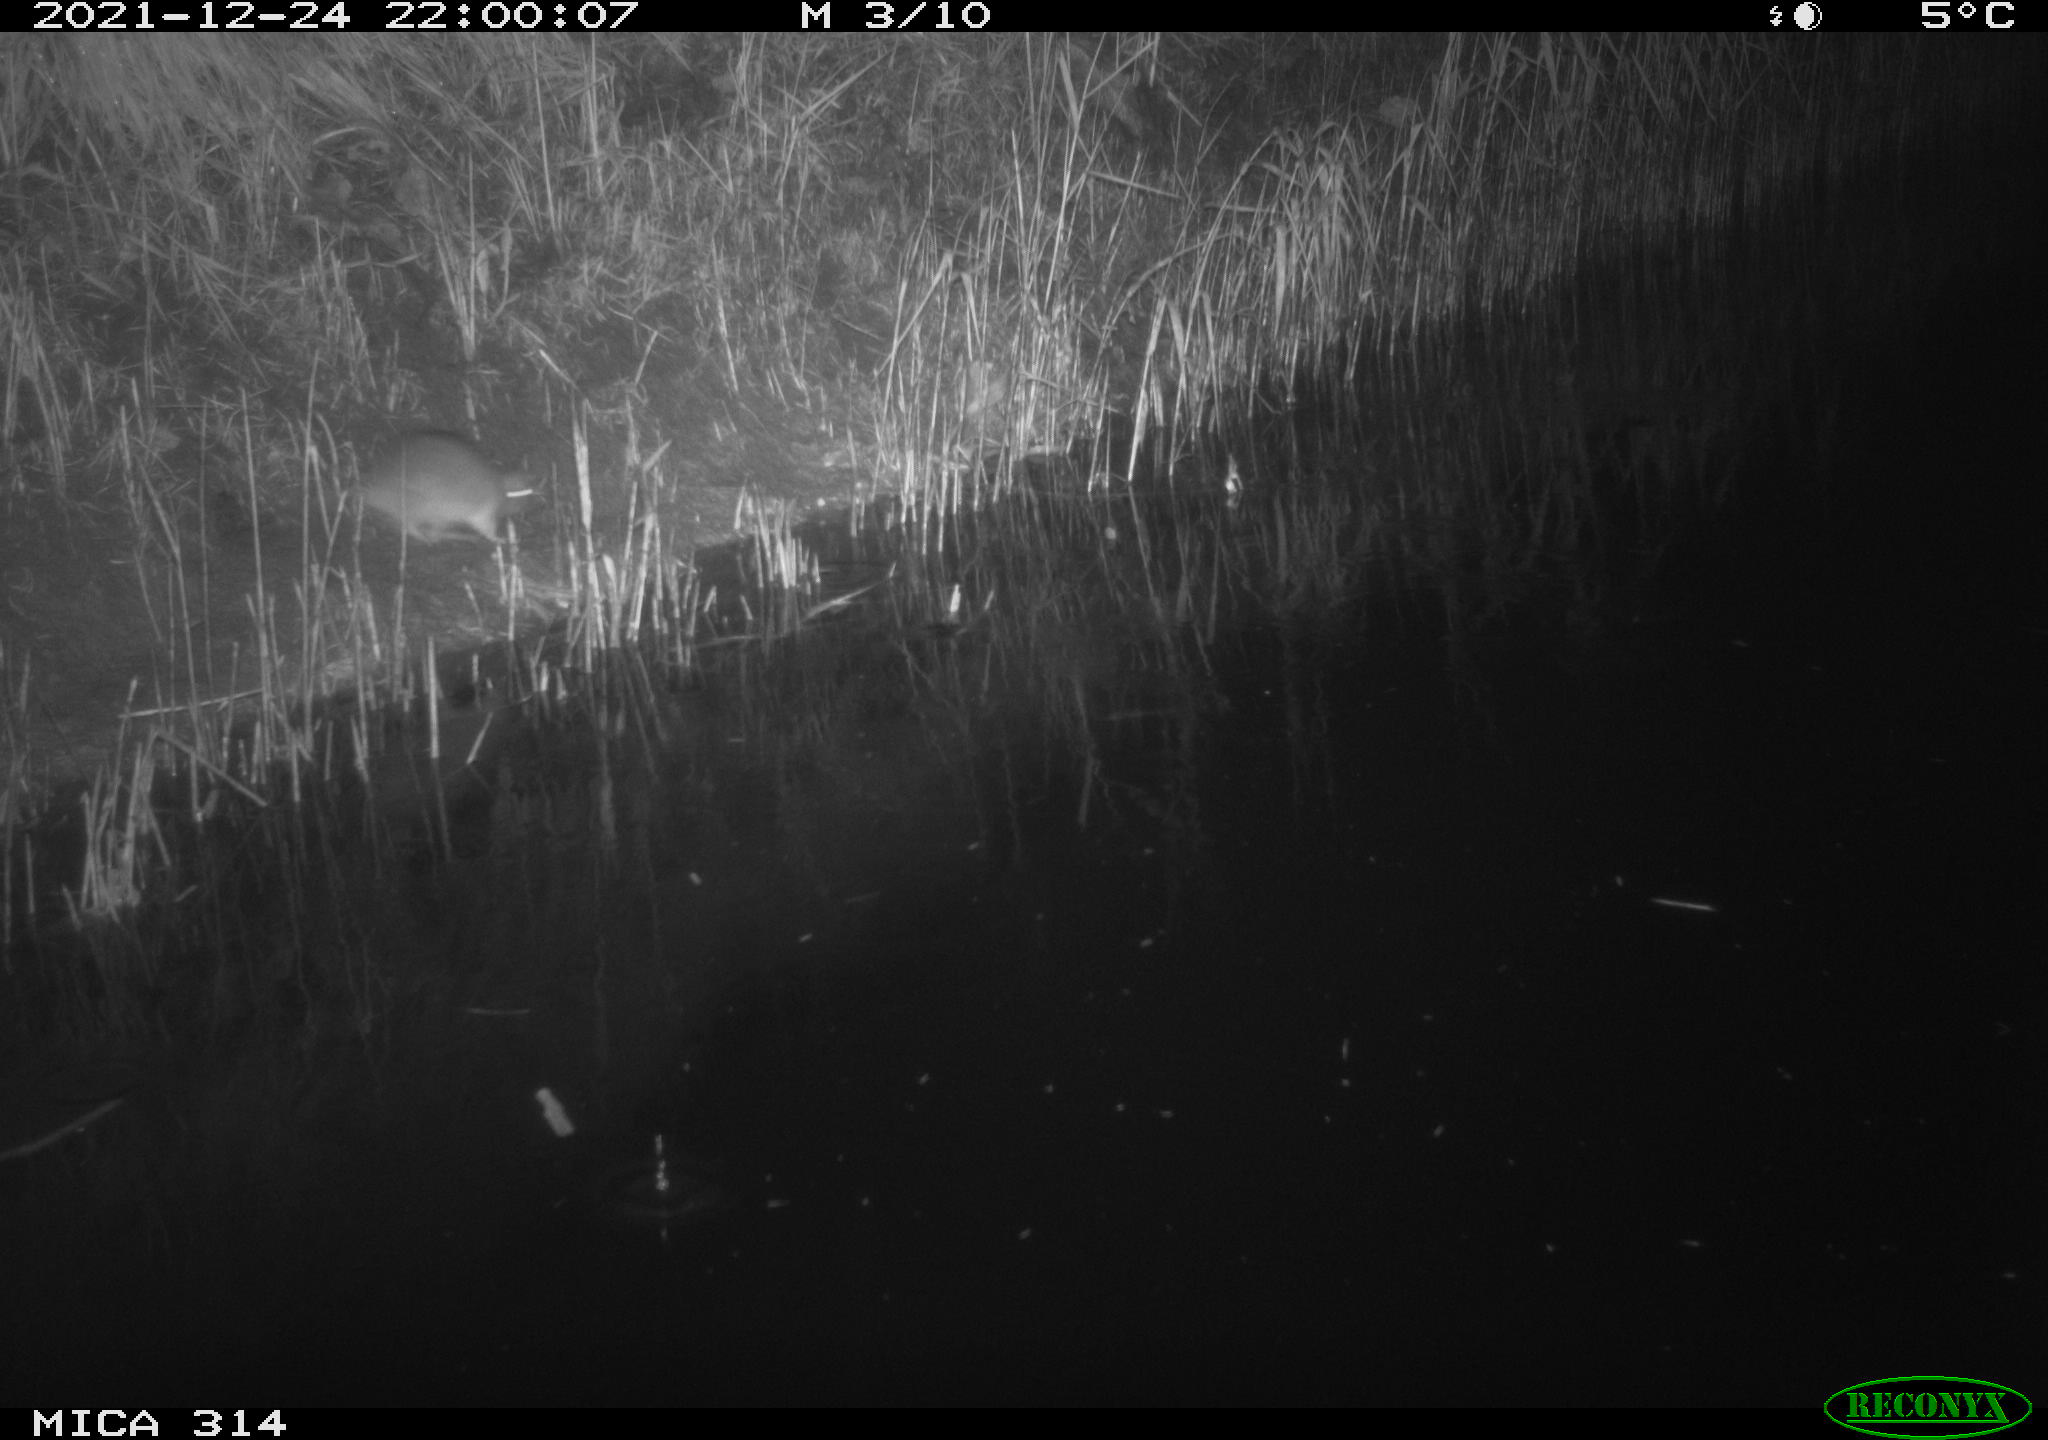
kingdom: Animalia
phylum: Chordata
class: Mammalia
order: Rodentia
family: Muridae
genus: Rattus
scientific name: Rattus norvegicus
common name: Brown rat
